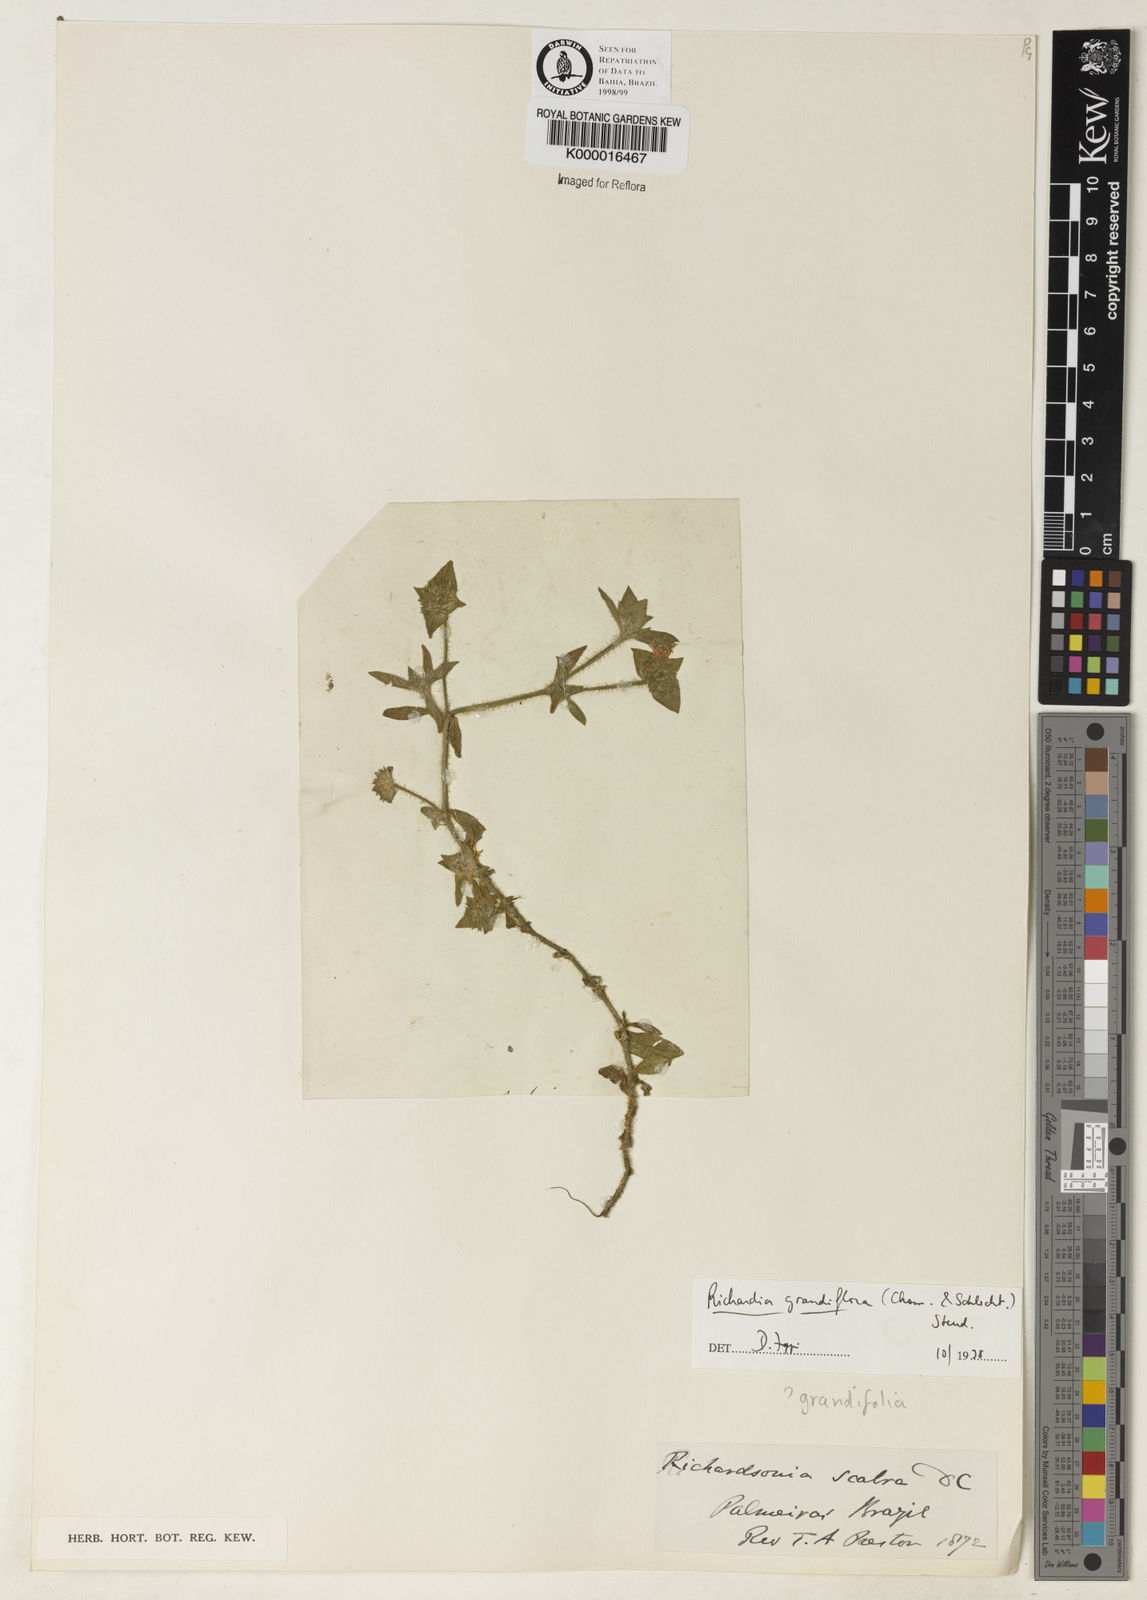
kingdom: Plantae
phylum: Tracheophyta
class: Magnoliopsida
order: Gentianales
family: Rubiaceae
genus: Richardia
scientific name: Richardia grandiflora
